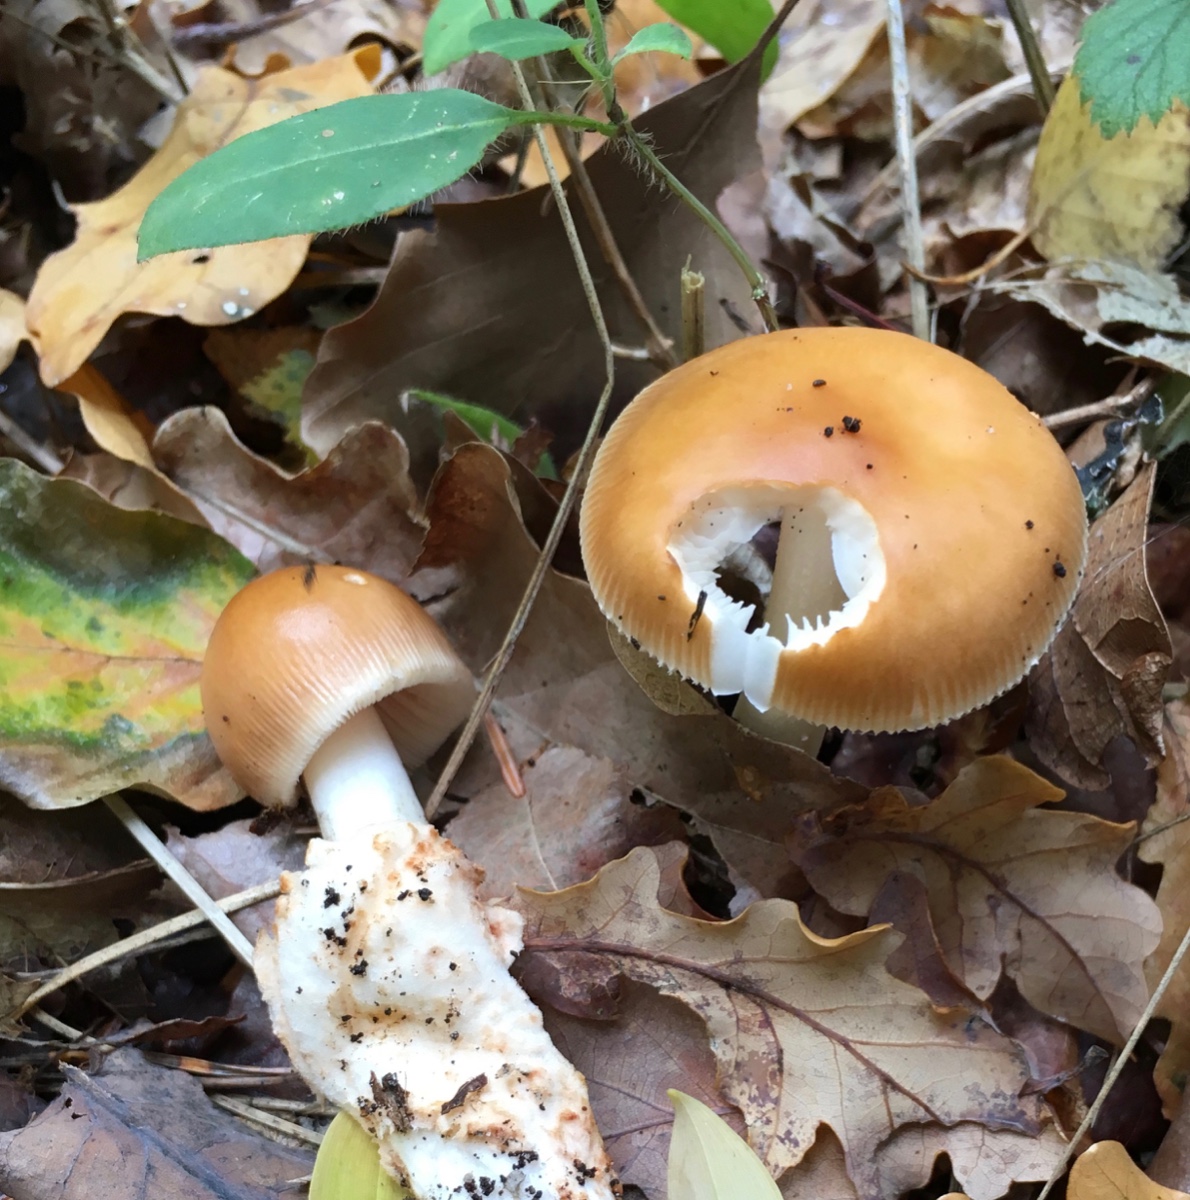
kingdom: Fungi
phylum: Basidiomycota
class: Agaricomycetes
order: Agaricales
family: Amanitaceae
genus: Amanita
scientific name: Amanita fulva
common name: brun kam-fluesvamp
